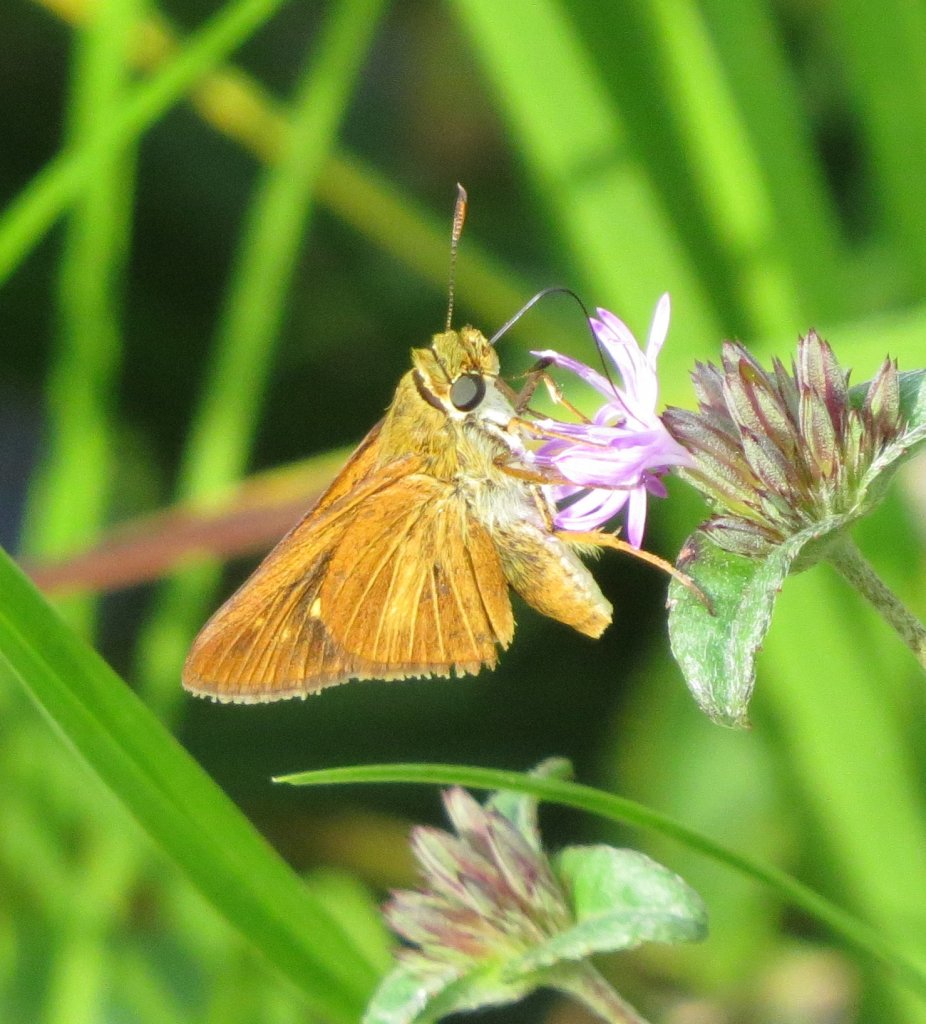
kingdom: Animalia
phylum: Arthropoda
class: Insecta
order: Lepidoptera
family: Hesperiidae
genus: Euphyes
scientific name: Euphyes dion
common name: Dion Skipper
